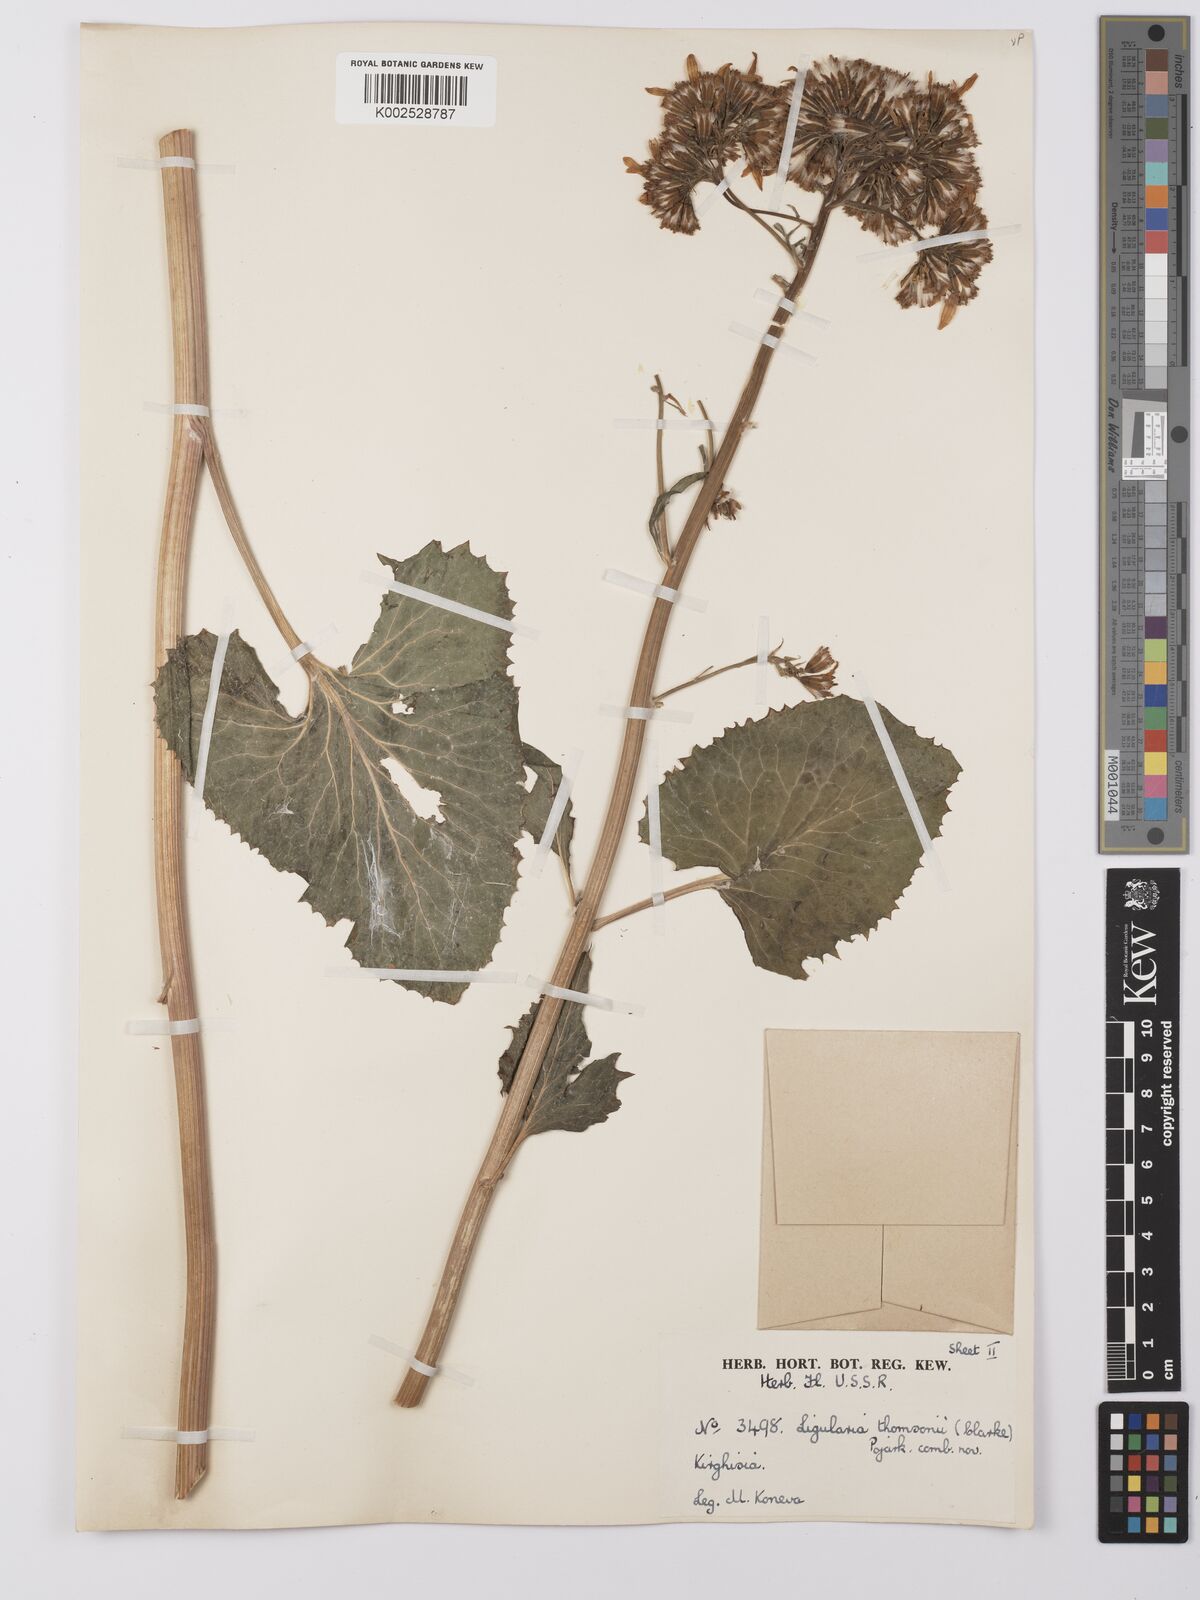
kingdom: Plantae
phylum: Tracheophyta
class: Magnoliopsida
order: Asterales
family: Asteraceae
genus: Vickifunkia
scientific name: Vickifunkia thomsonii
